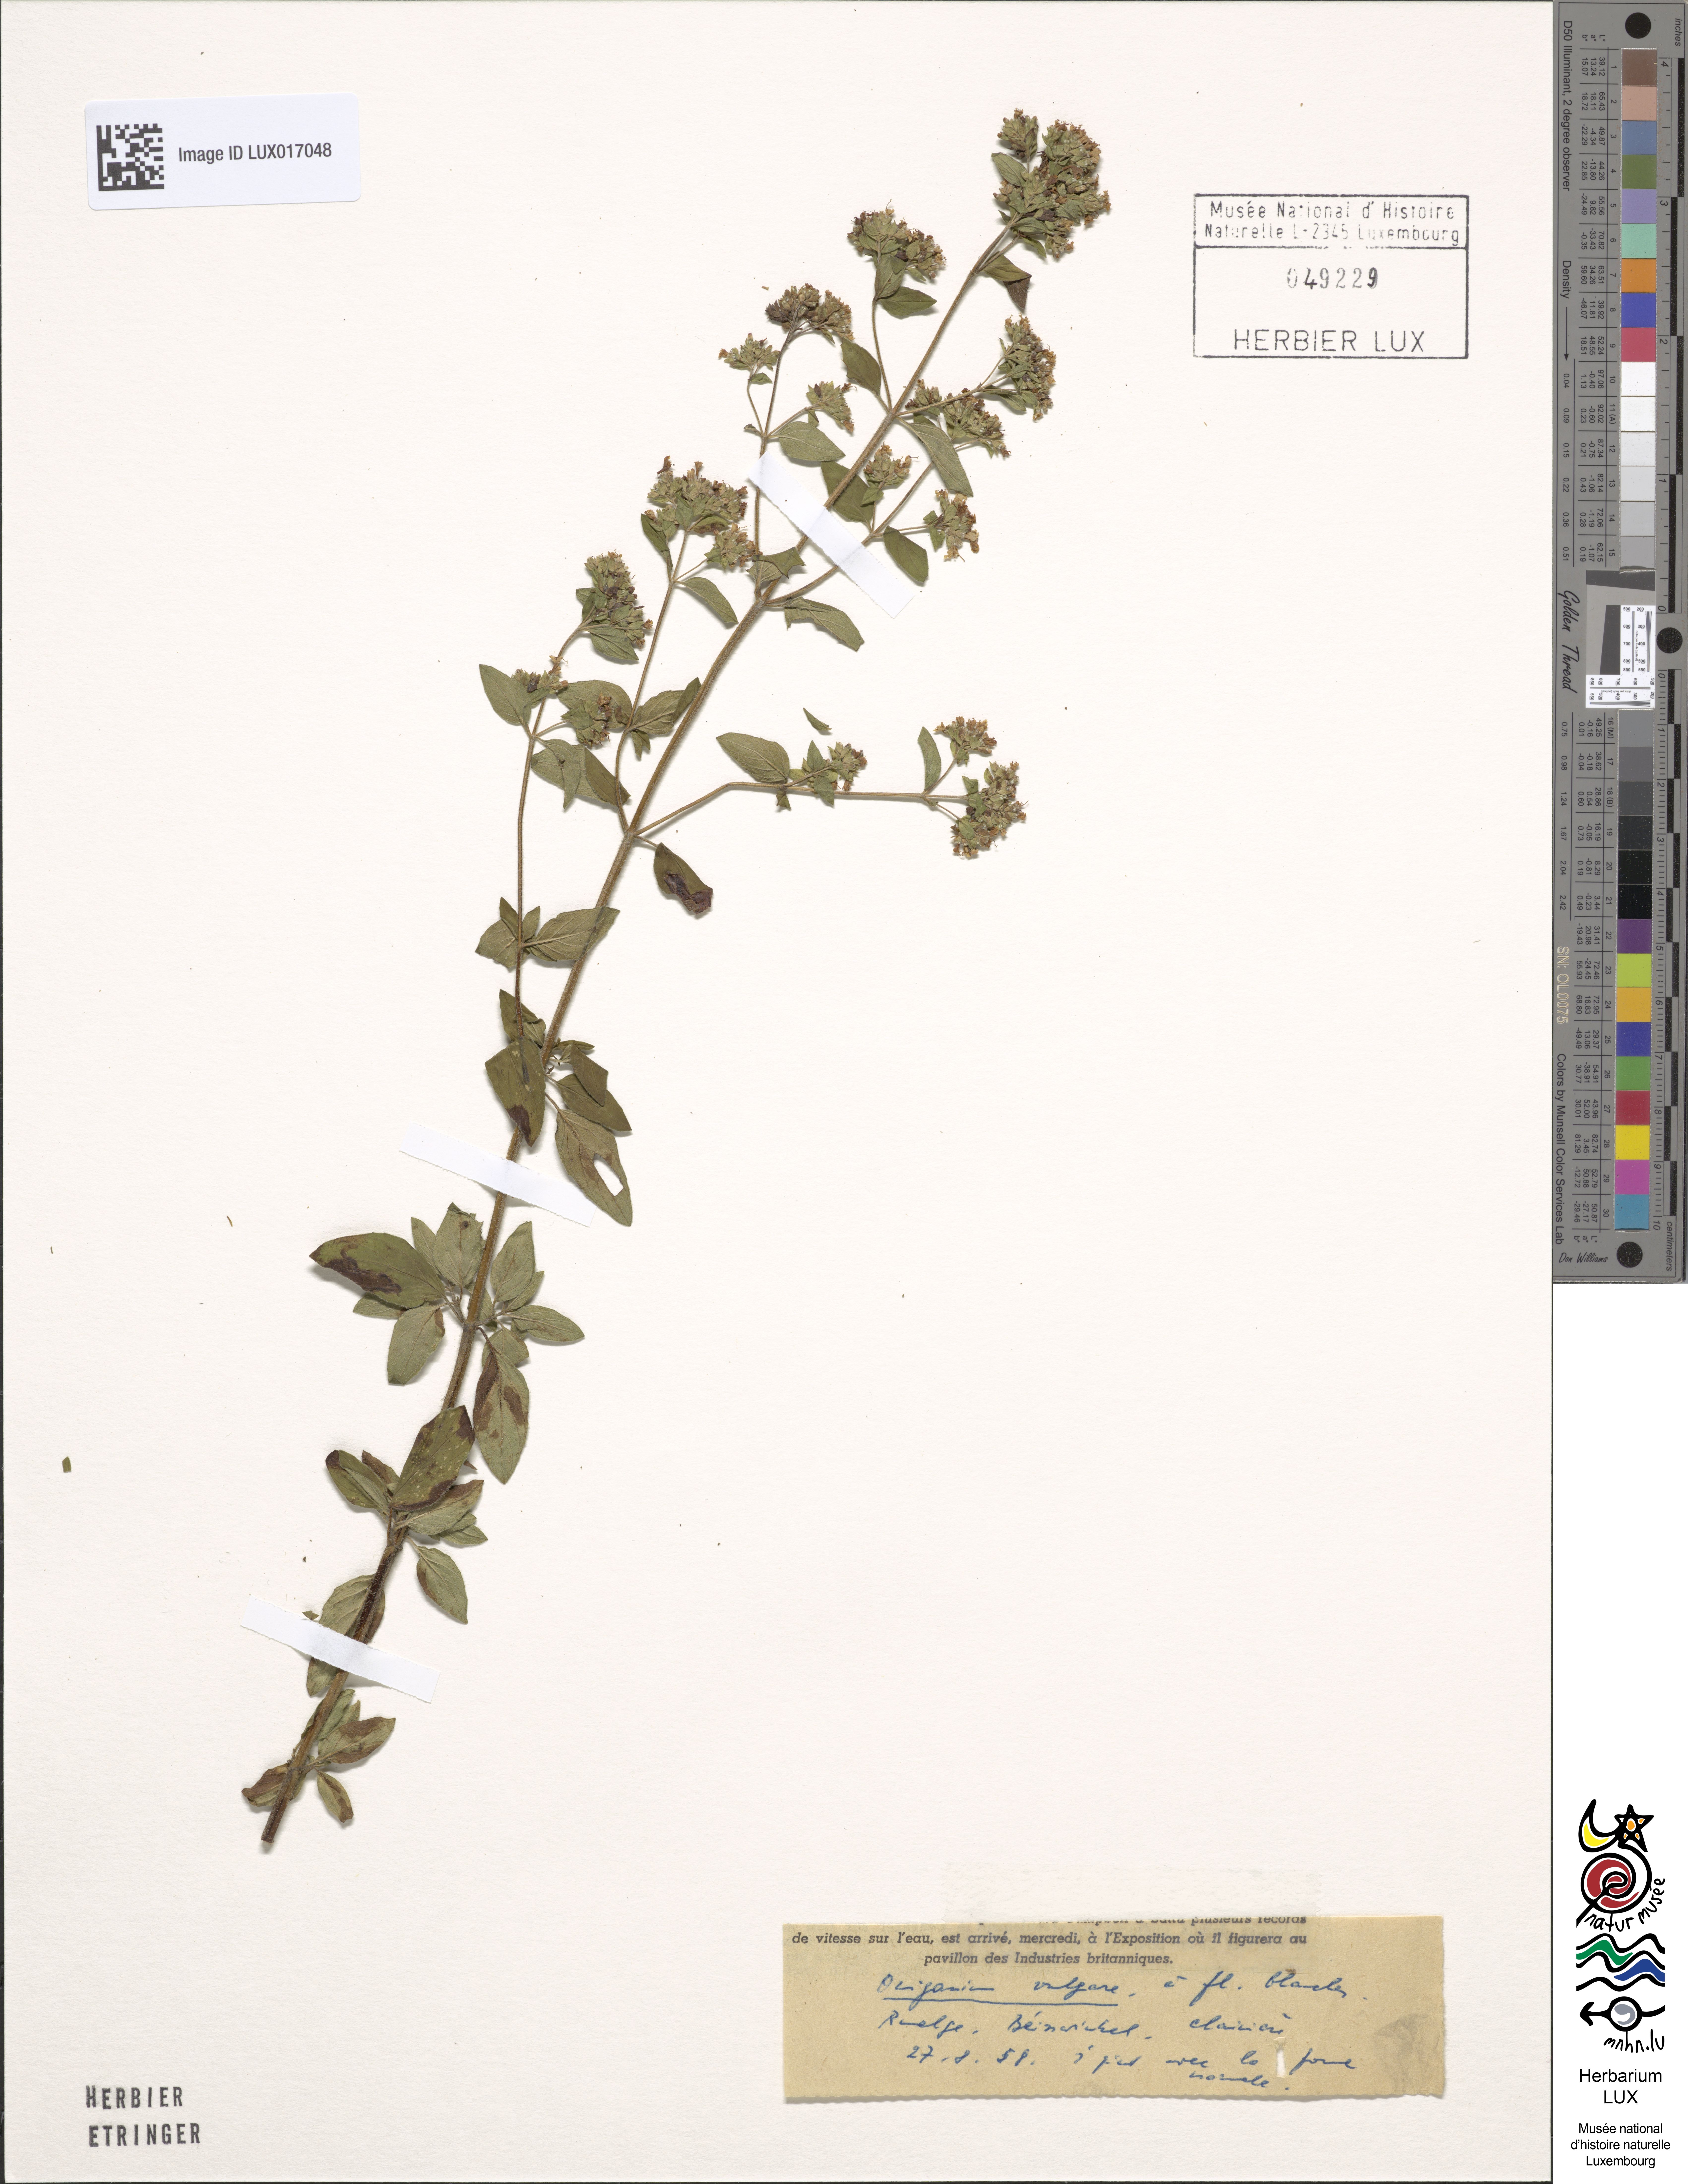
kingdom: Plantae
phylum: Tracheophyta
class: Magnoliopsida
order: Lamiales
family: Lamiaceae
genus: Origanum
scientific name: Origanum vulgare
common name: Wild marjoram
